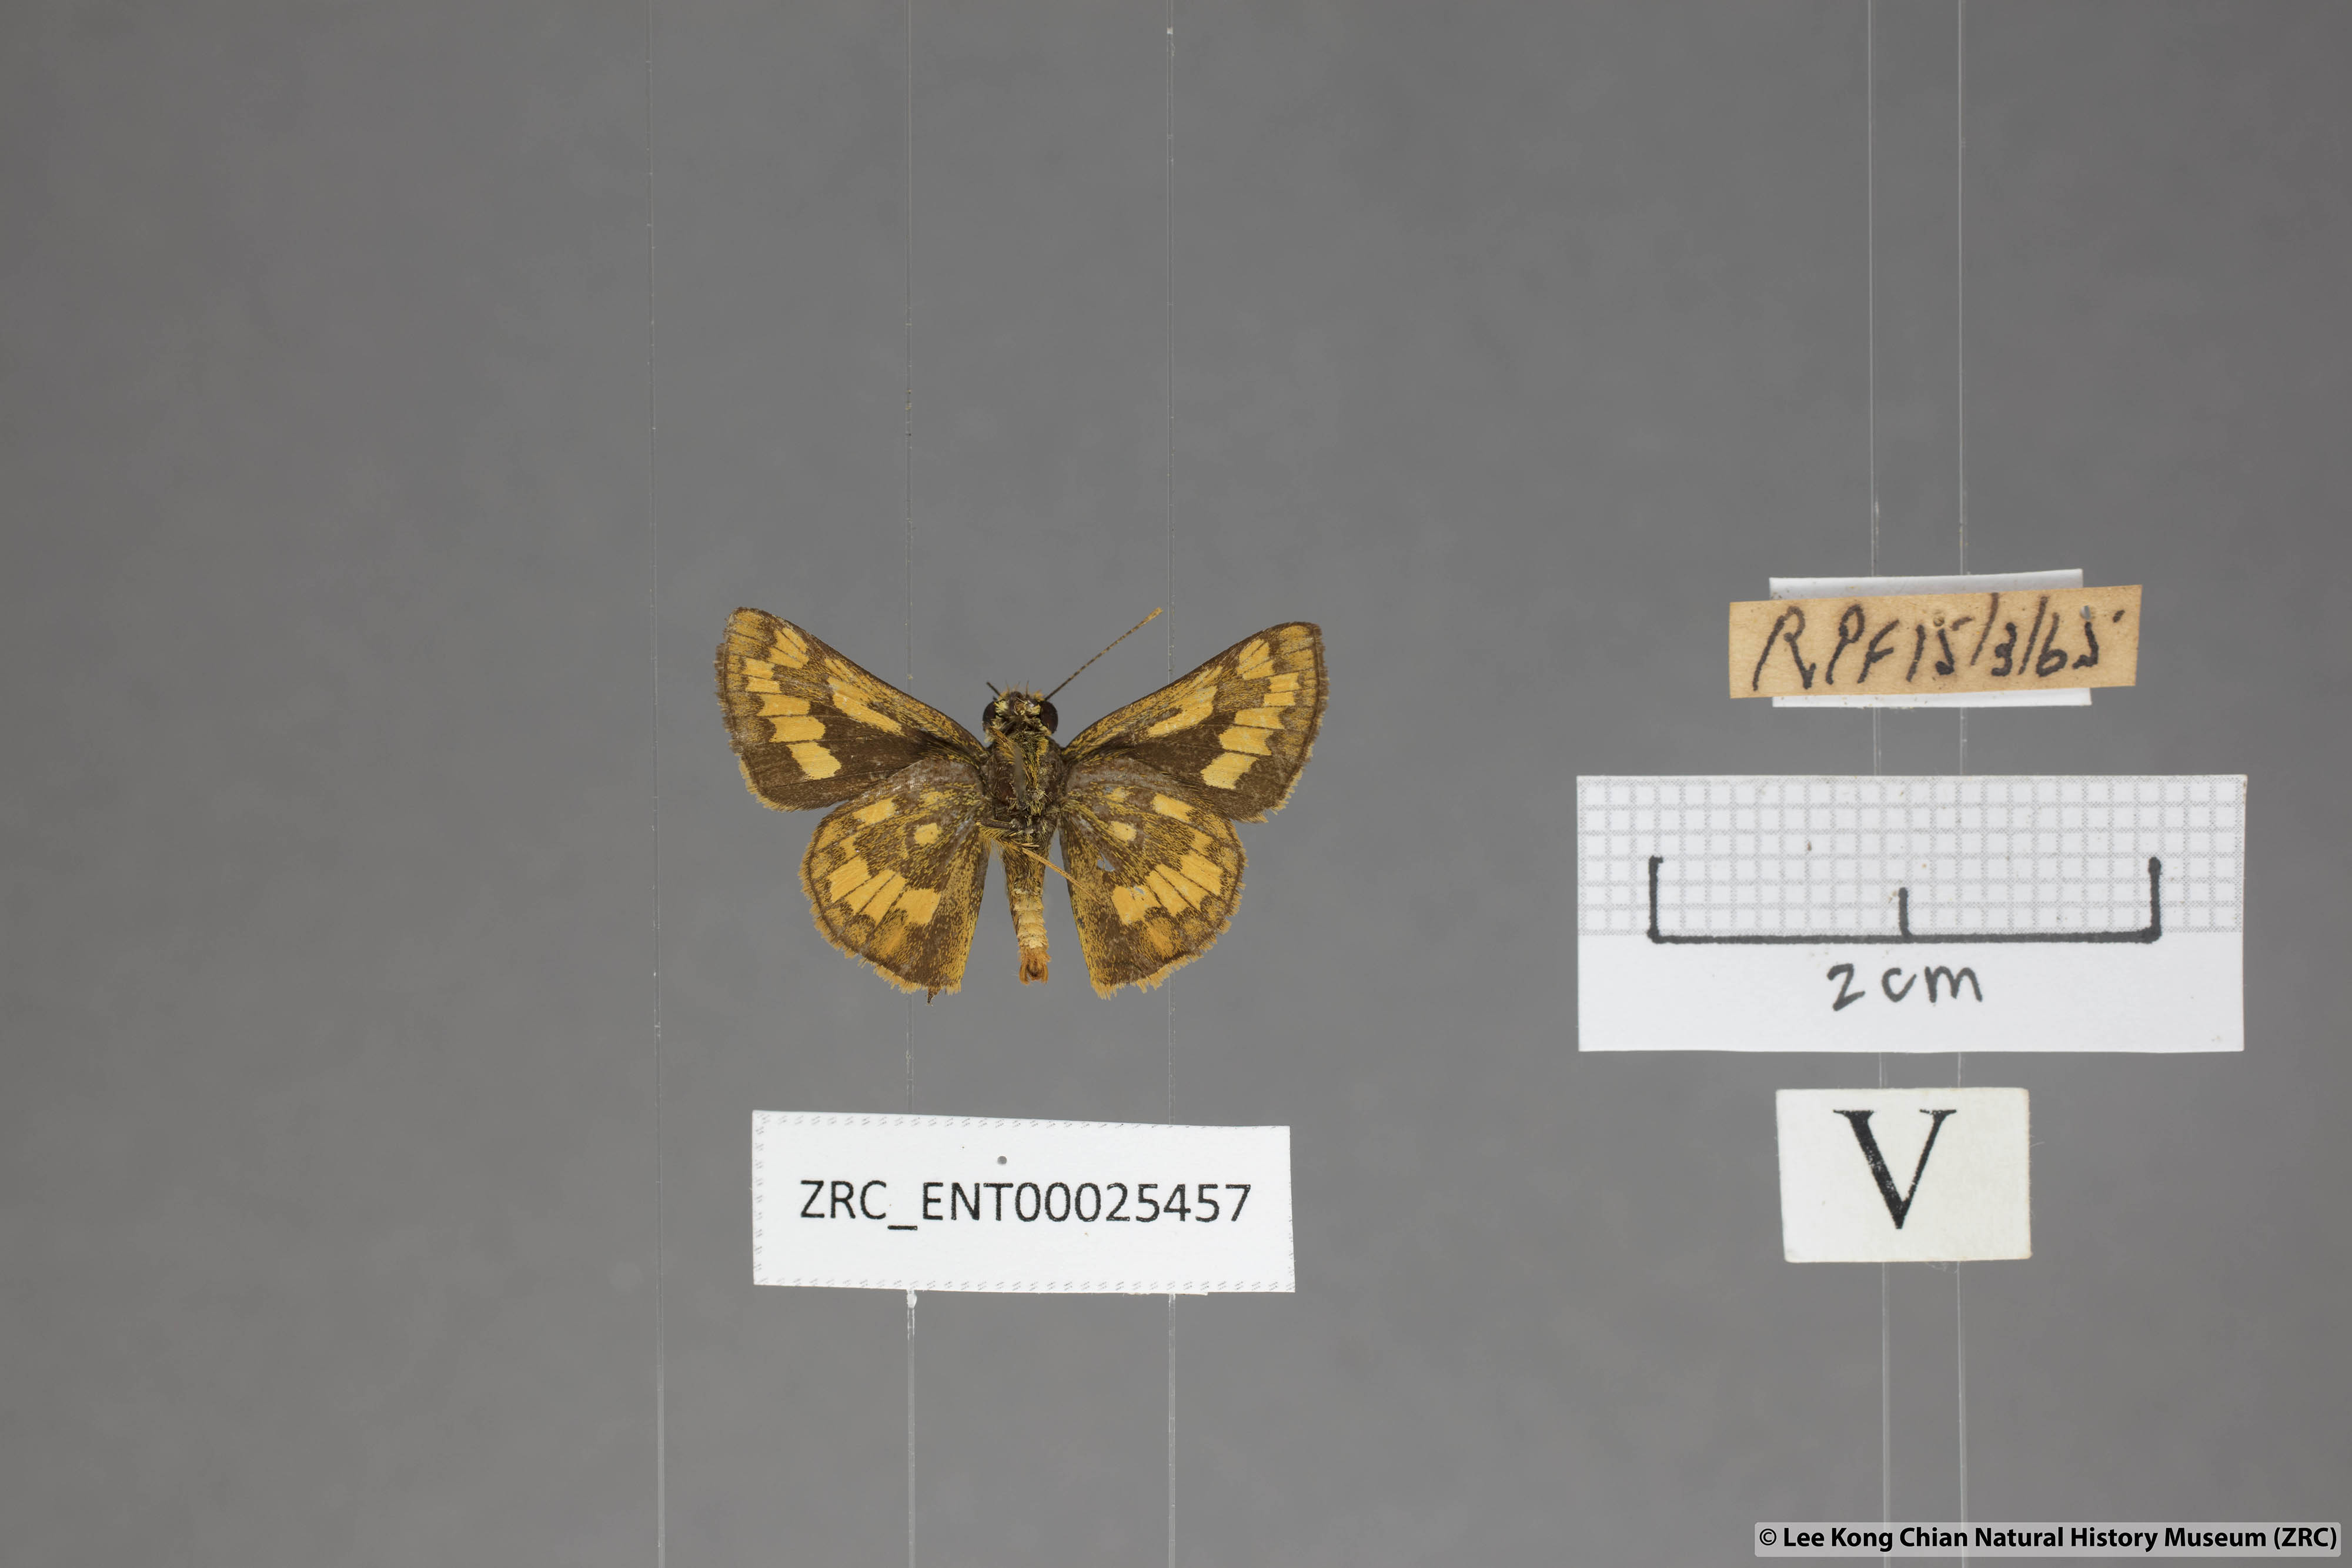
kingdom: Animalia
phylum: Arthropoda
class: Insecta
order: Lepidoptera
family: Hesperiidae
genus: Potanthus
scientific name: Potanthus omaha
